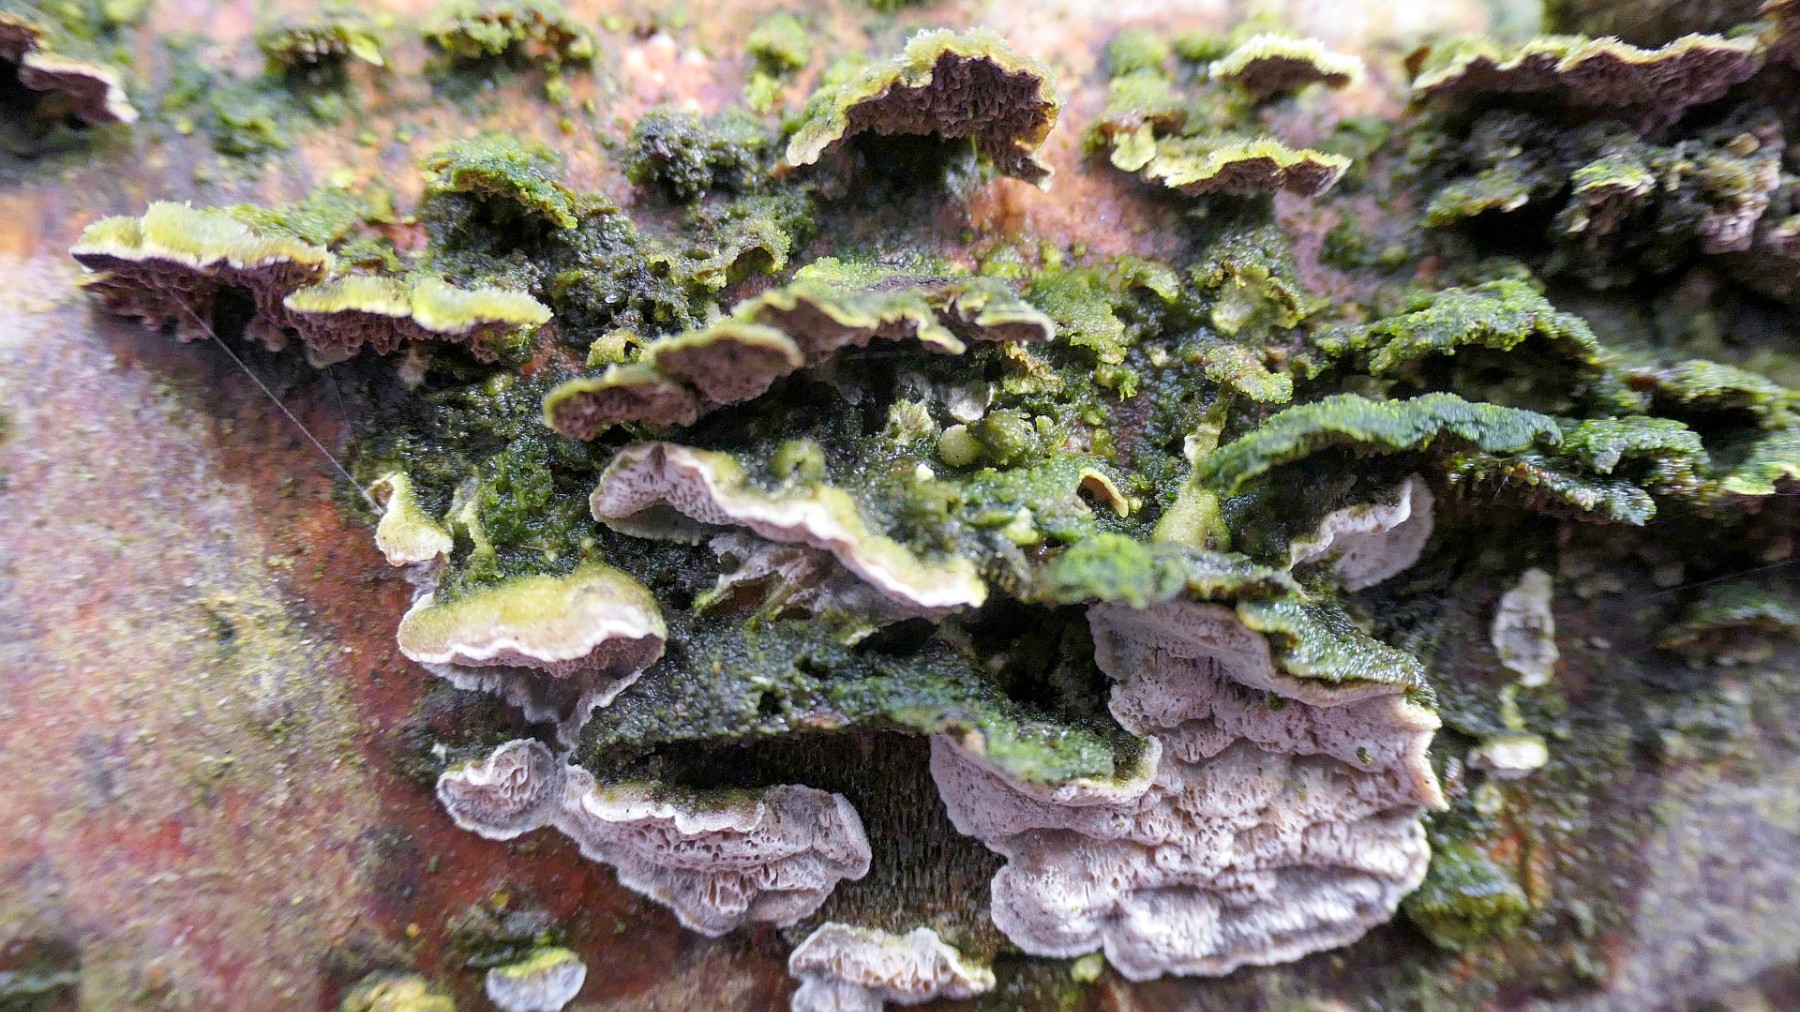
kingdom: Fungi
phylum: Basidiomycota
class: Agaricomycetes
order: Polyporales
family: Incrustoporiaceae
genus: Skeletocutis
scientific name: Skeletocutis carneogrisea
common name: rødgrå krystalporesvamp
